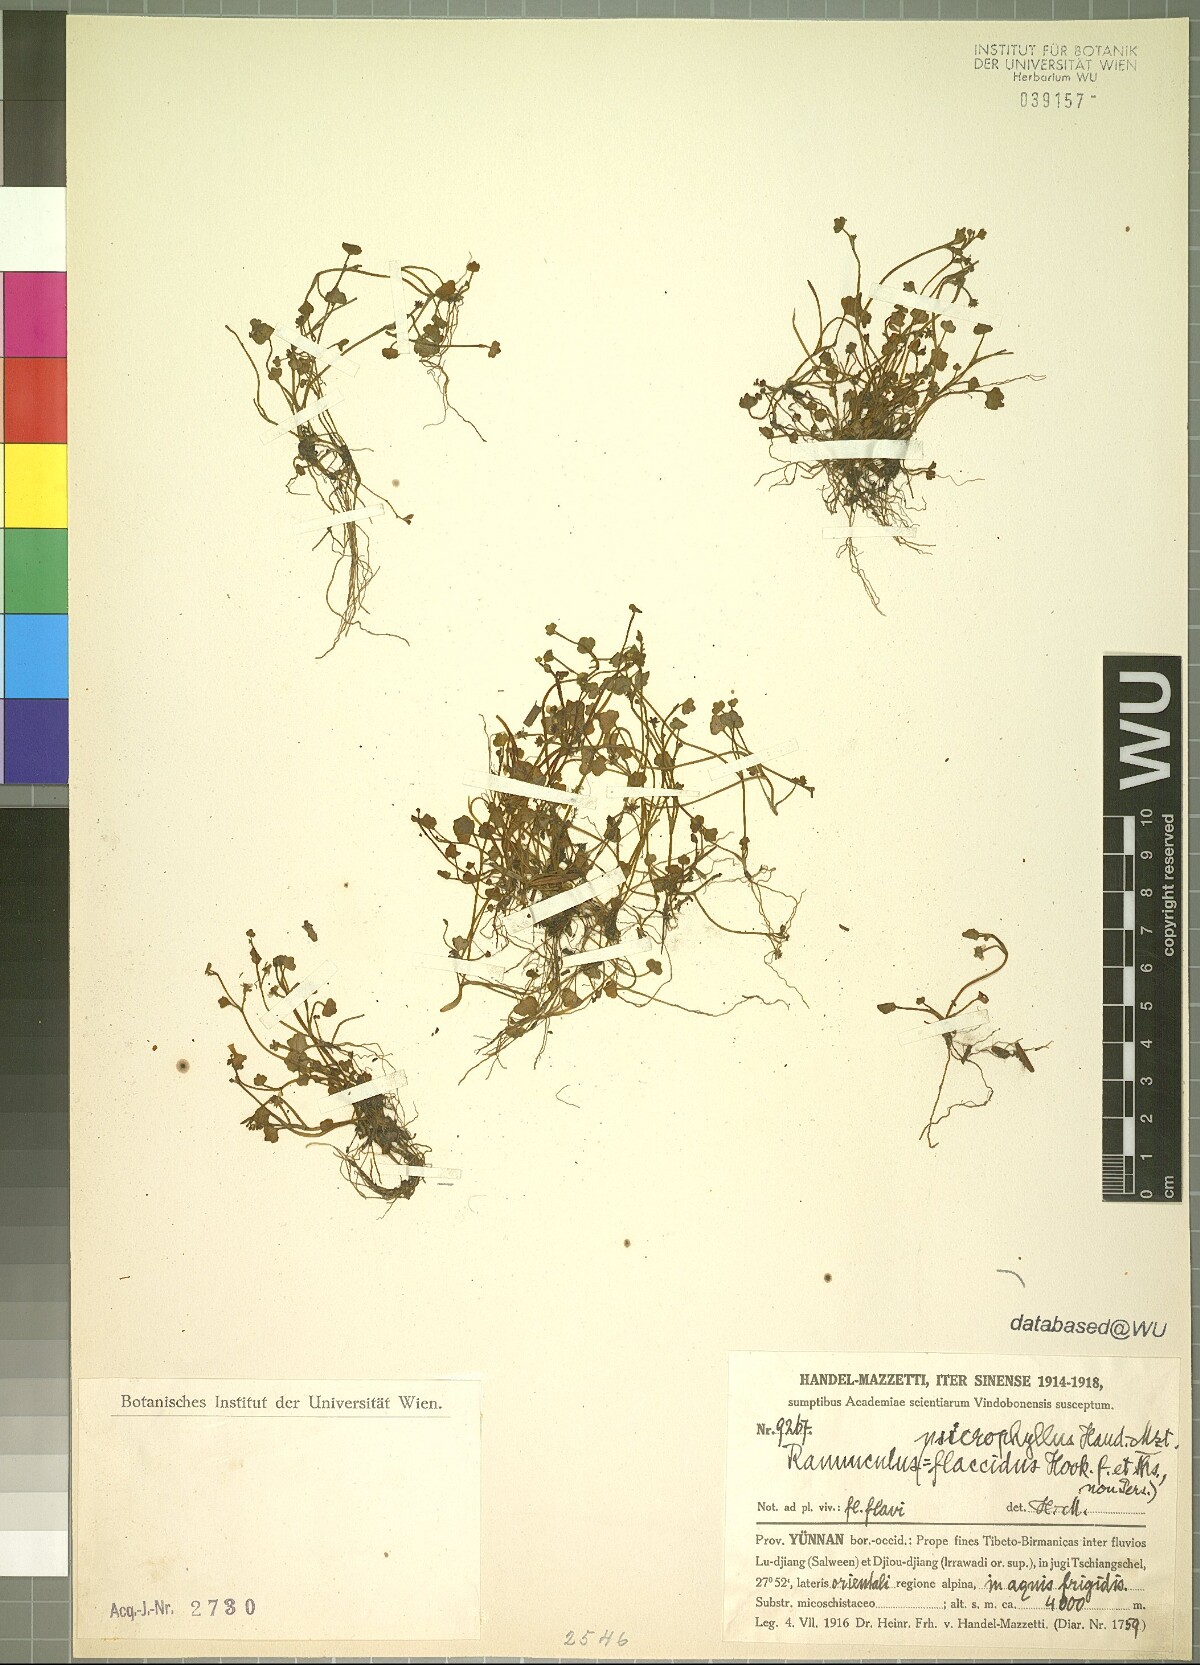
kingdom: Plantae
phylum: Tracheophyta
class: Magnoliopsida
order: Ranunculales
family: Ranunculaceae
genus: Ranunculus
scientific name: Ranunculus microphyllus
